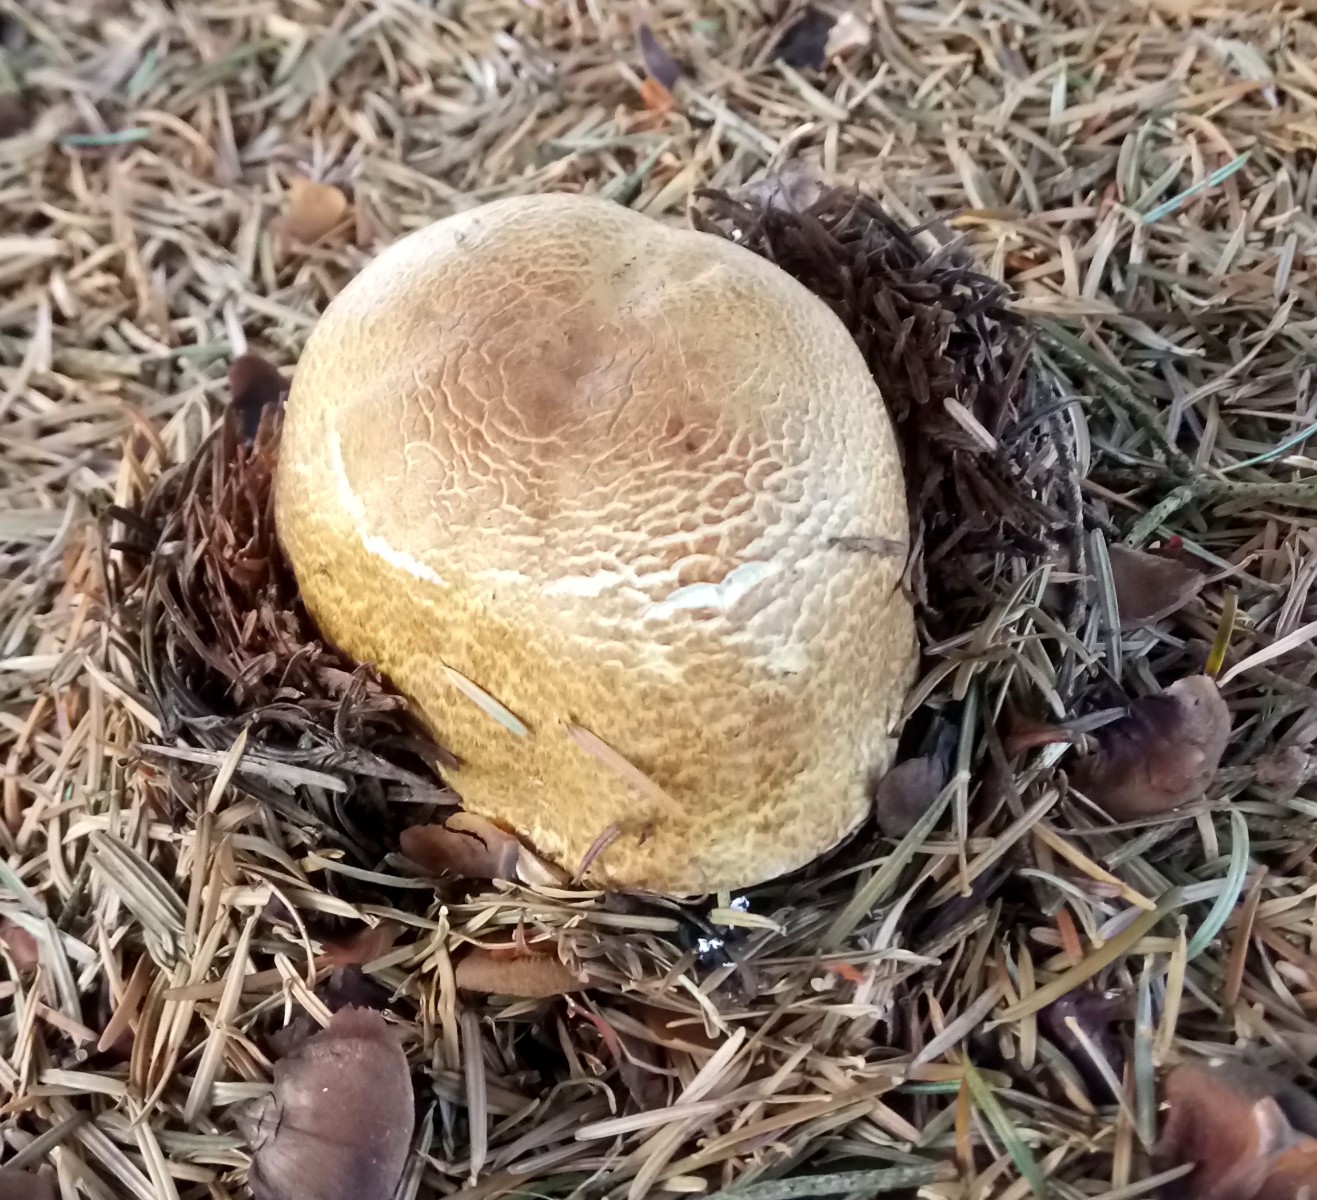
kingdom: Fungi
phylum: Basidiomycota
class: Agaricomycetes
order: Agaricales
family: Agaricaceae
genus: Agaricus
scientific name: Agaricus augustus
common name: prægtig champignon
